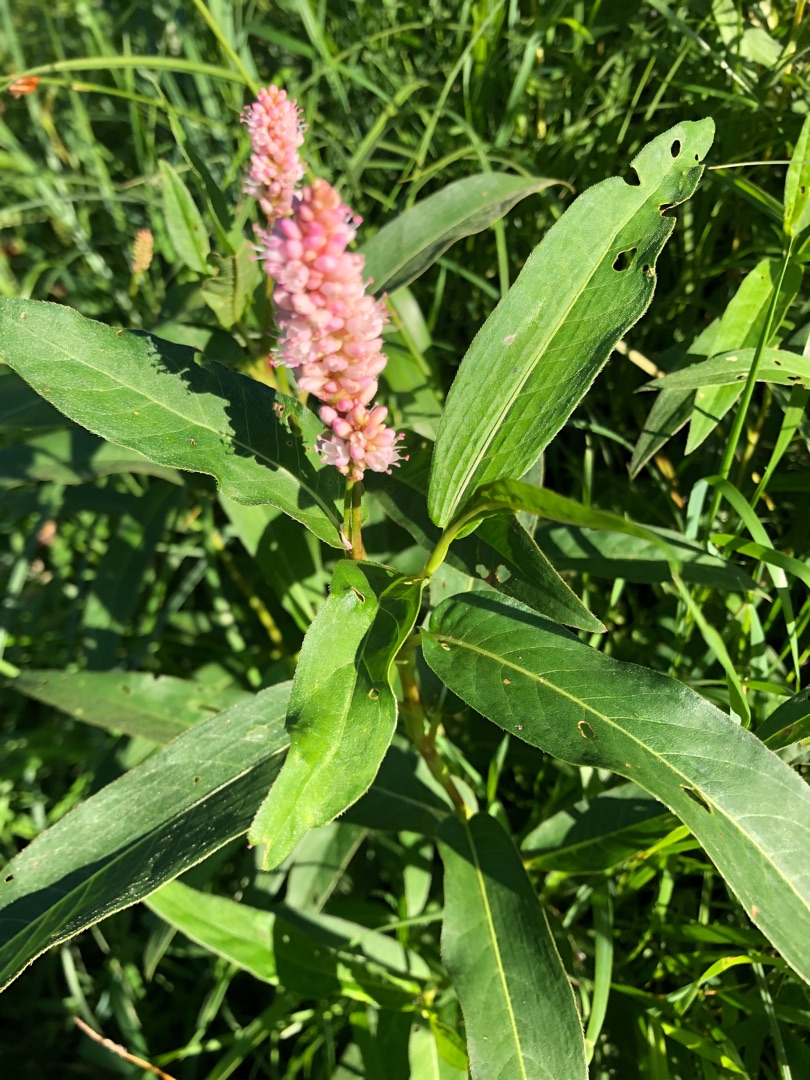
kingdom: Plantae
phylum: Tracheophyta
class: Magnoliopsida
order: Caryophyllales
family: Polygonaceae
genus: Persicaria
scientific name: Persicaria amphibia
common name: Vand-pileurt
